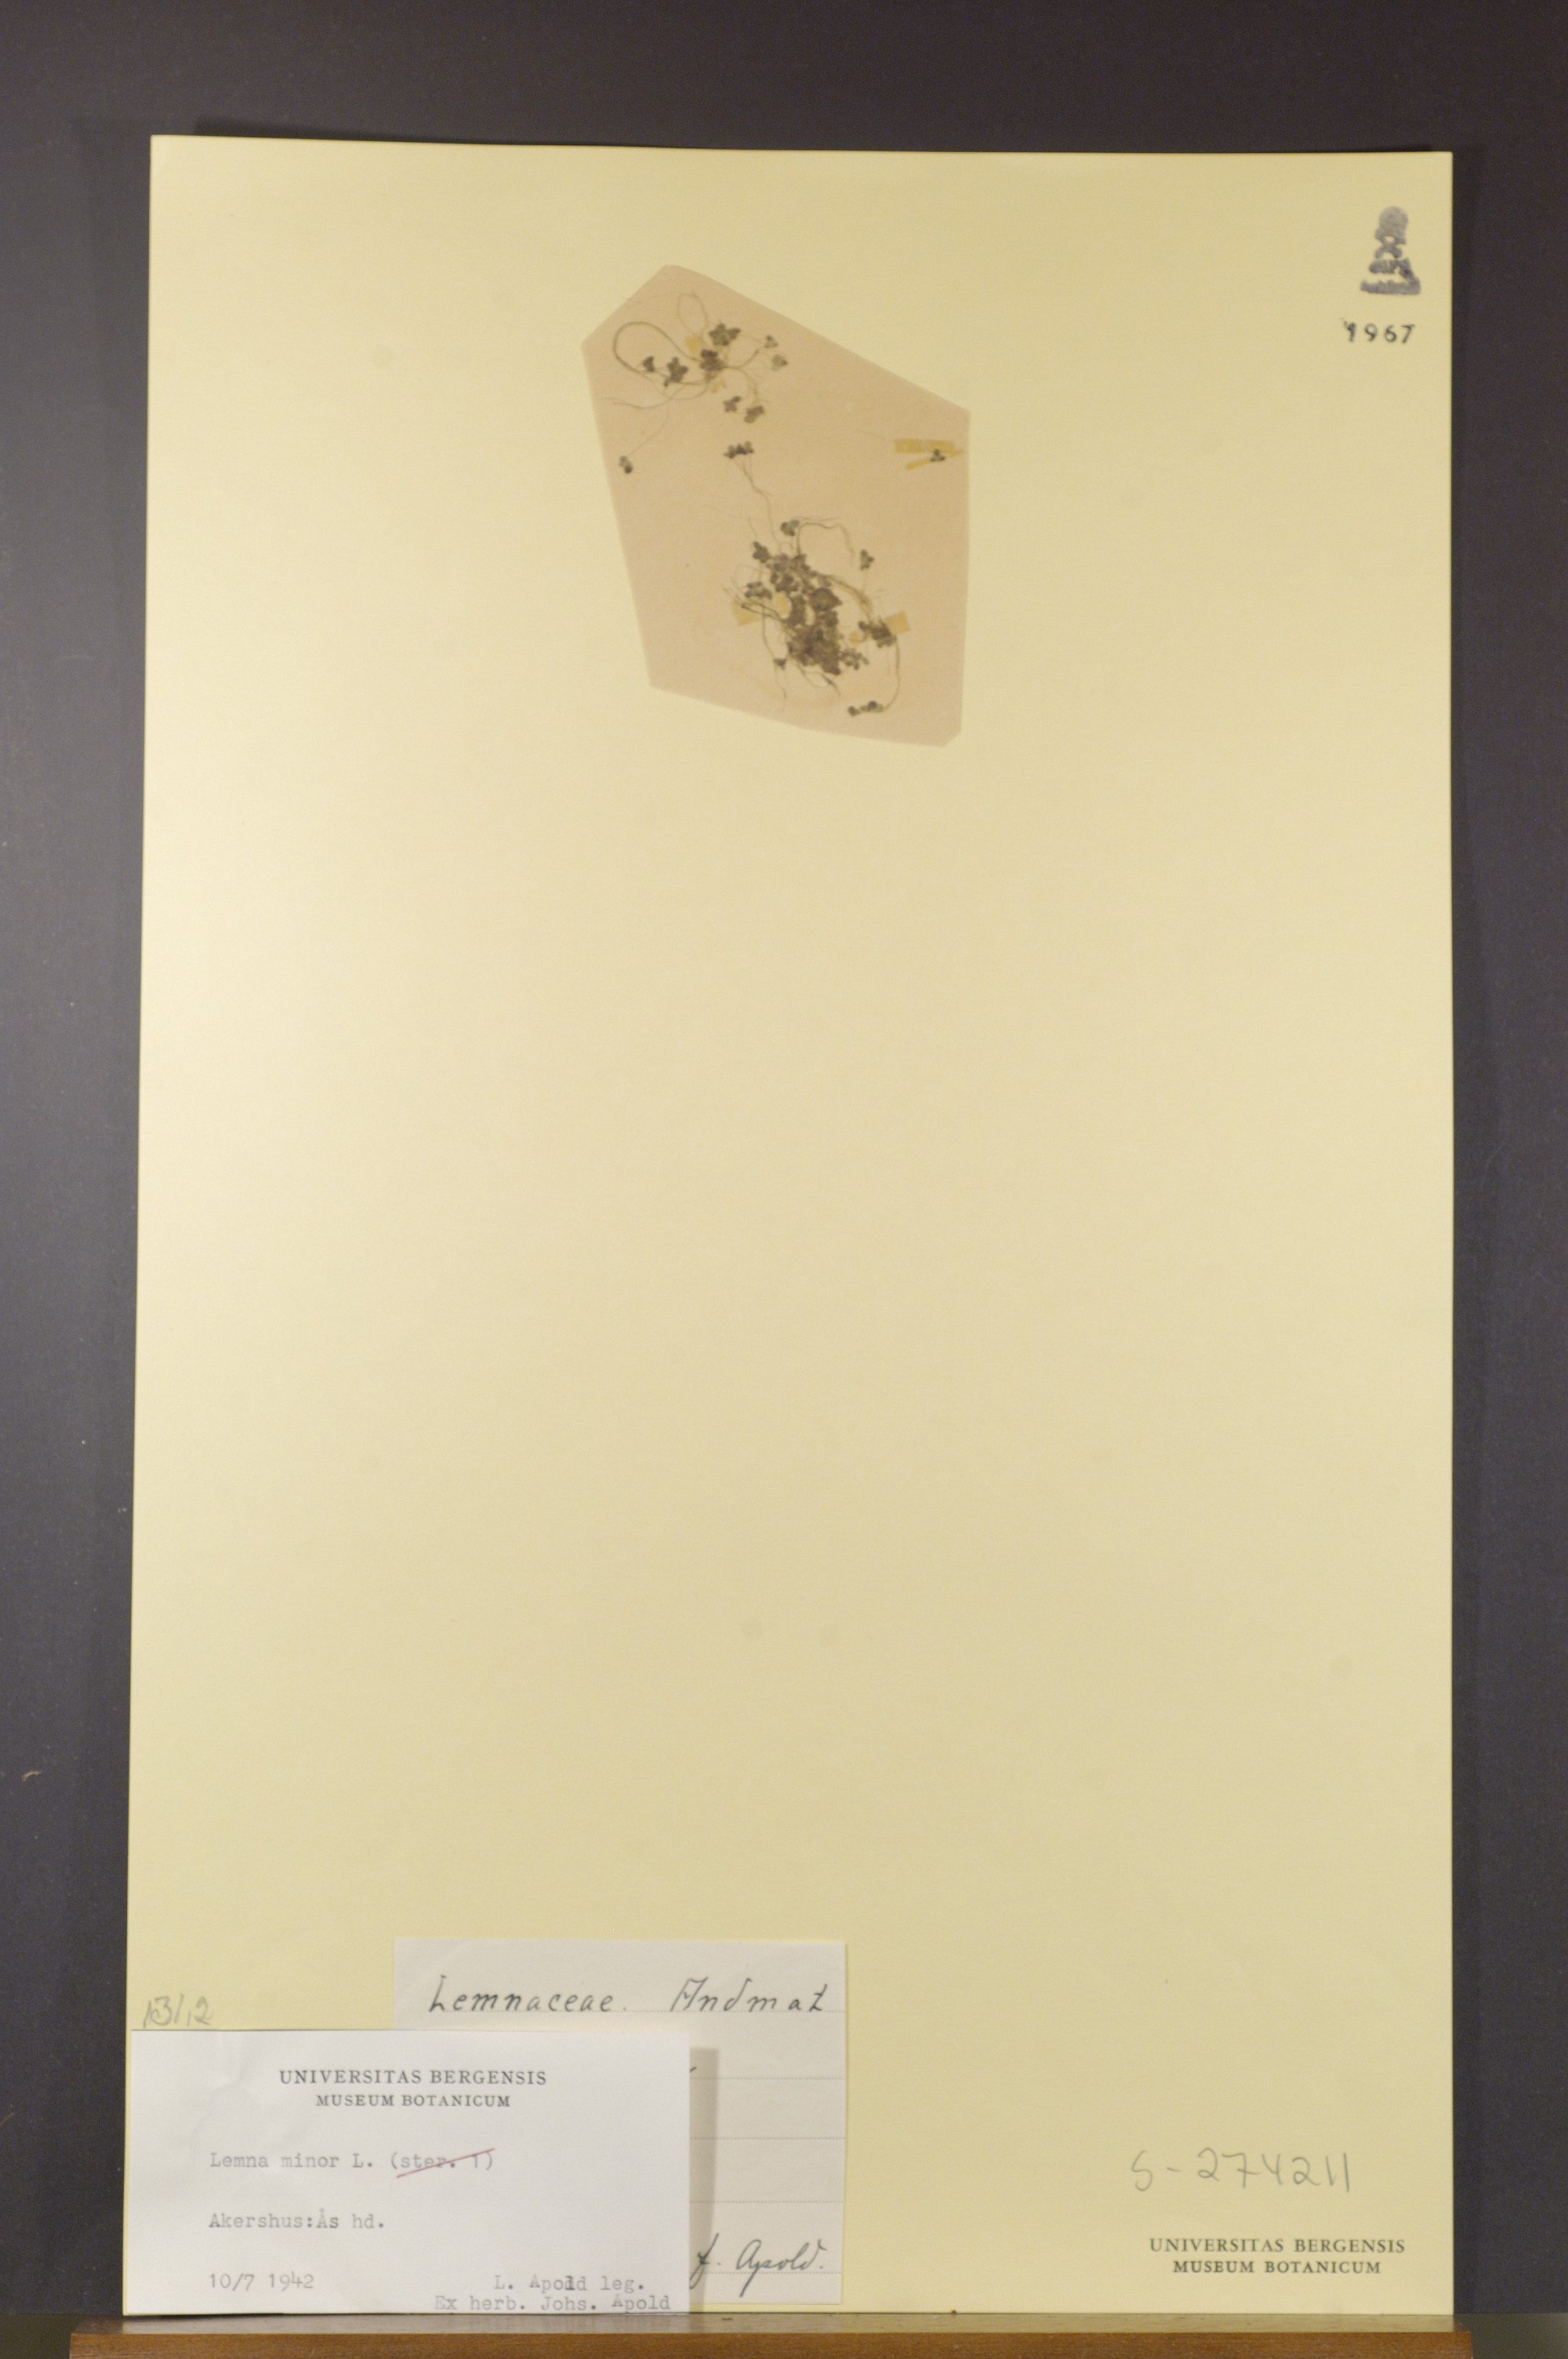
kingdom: Plantae
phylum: Tracheophyta
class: Liliopsida
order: Alismatales
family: Araceae
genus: Lemna
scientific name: Lemna minor
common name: Common duckweed
